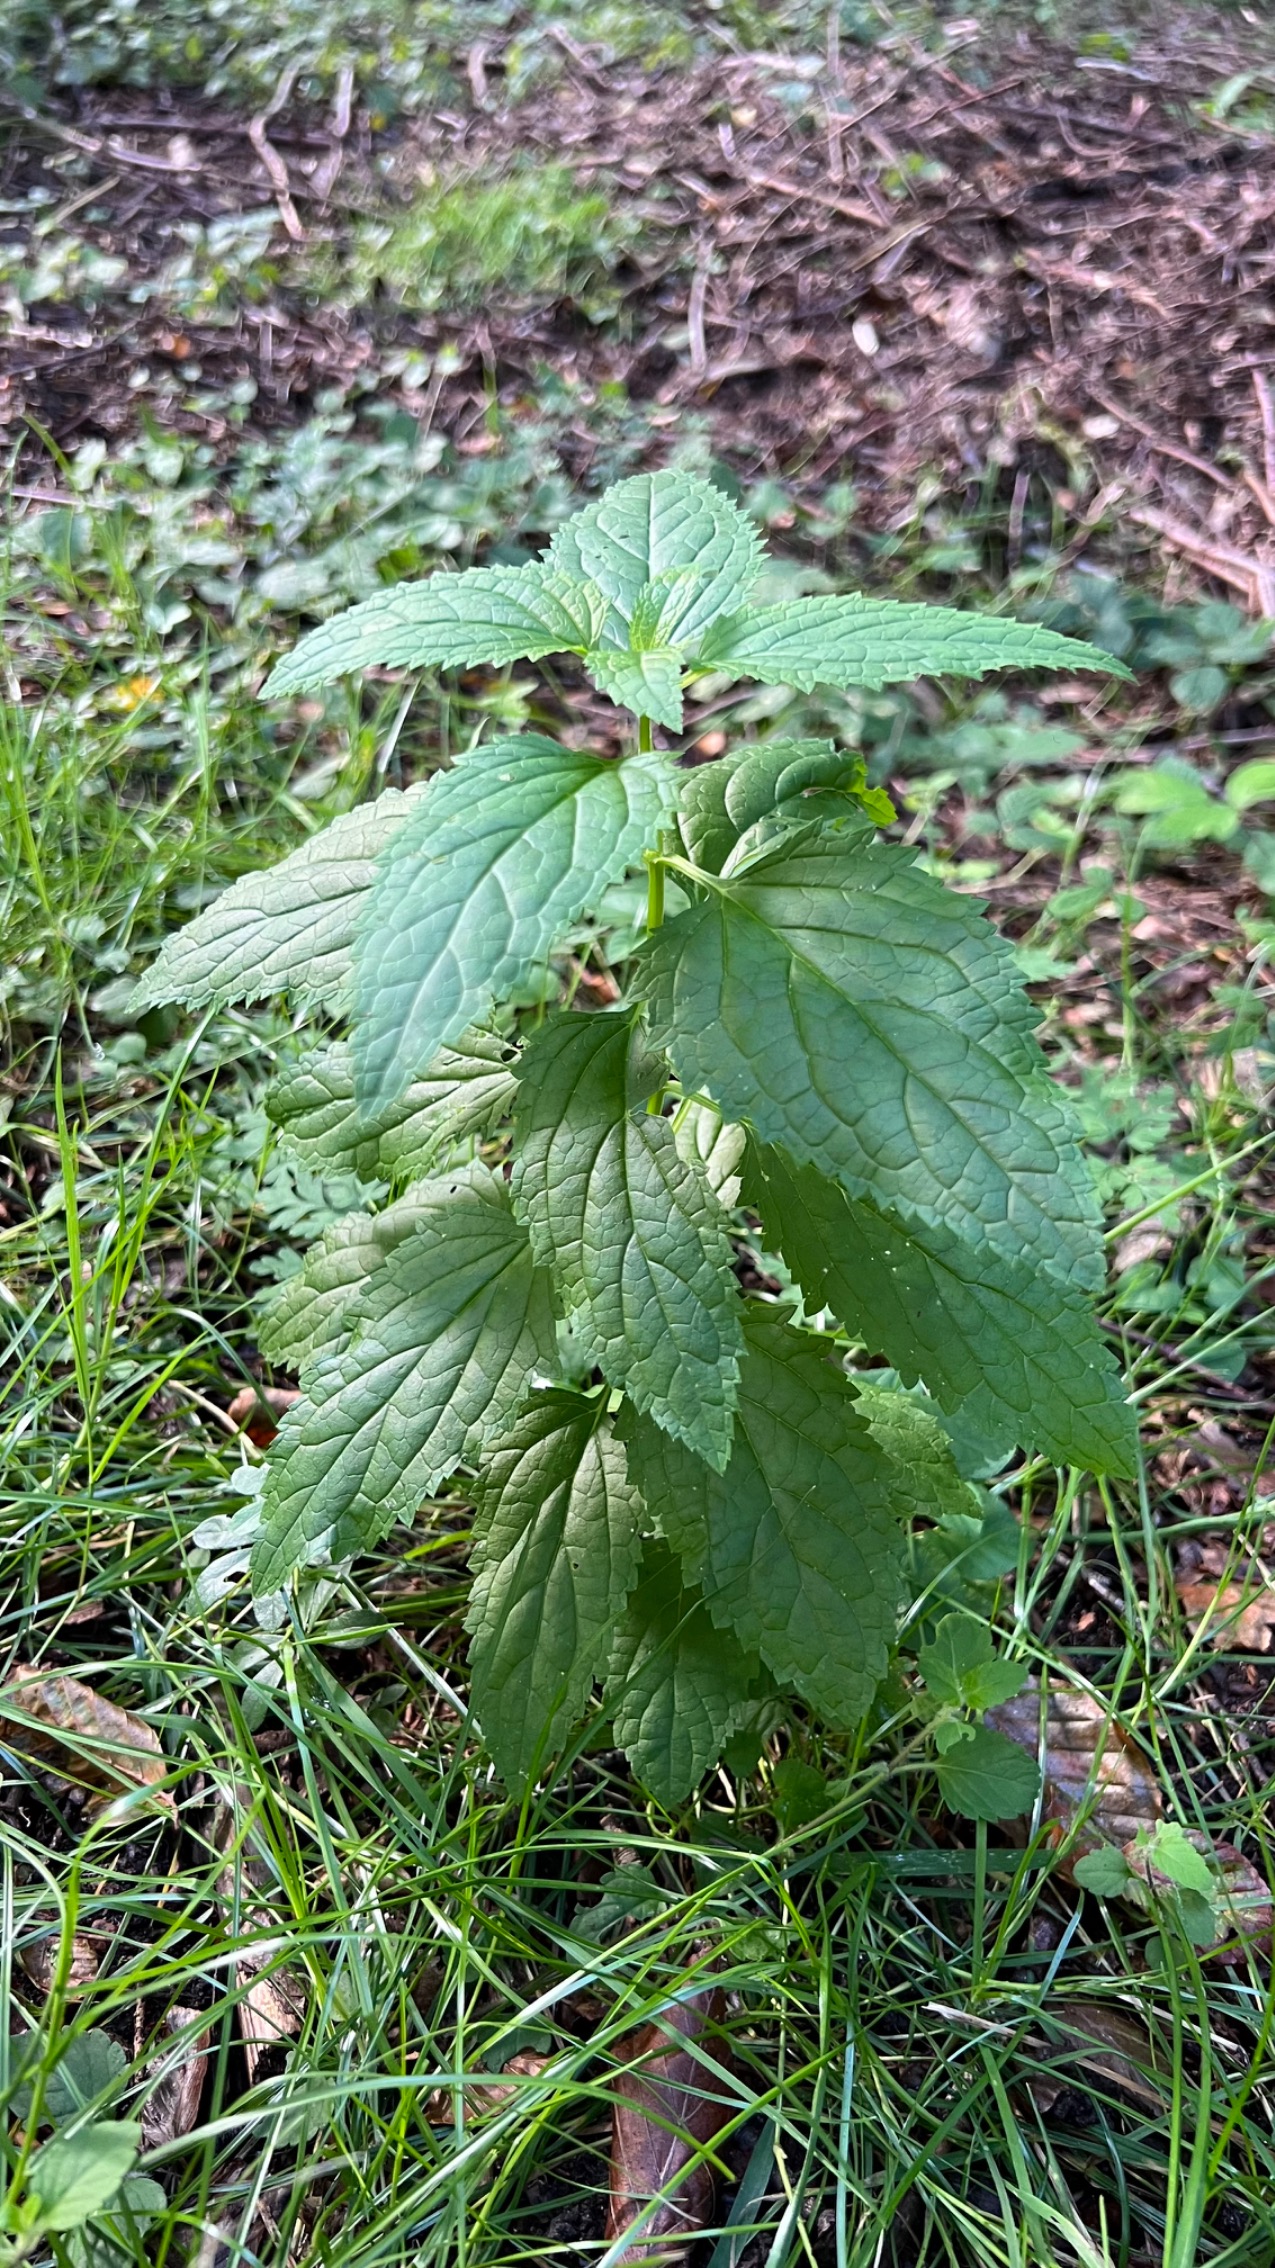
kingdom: Plantae
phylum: Tracheophyta
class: Magnoliopsida
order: Lamiales
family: Scrophulariaceae
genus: Scrophularia
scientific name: Scrophularia nodosa
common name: Knoldet brunrod
